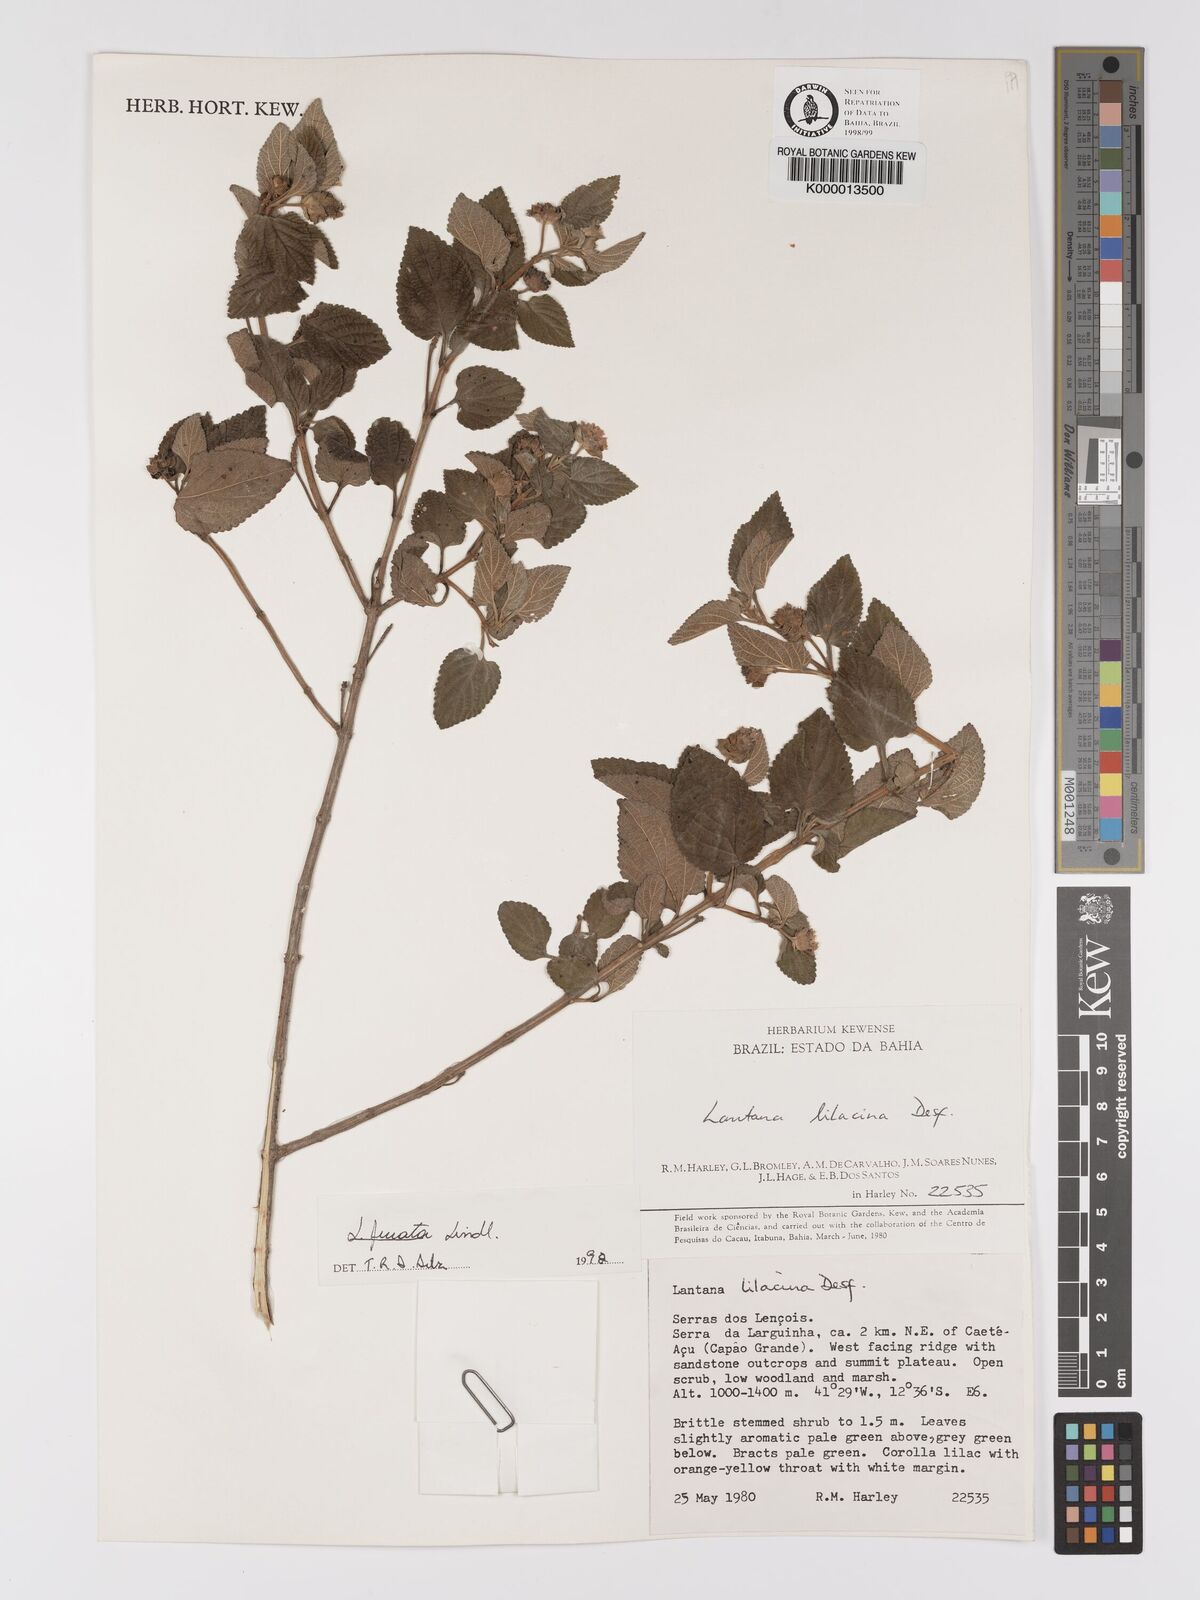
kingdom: Plantae
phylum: Tracheophyta
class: Magnoliopsida
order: Lamiales
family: Verbenaceae
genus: Lantana
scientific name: Lantana fucata
